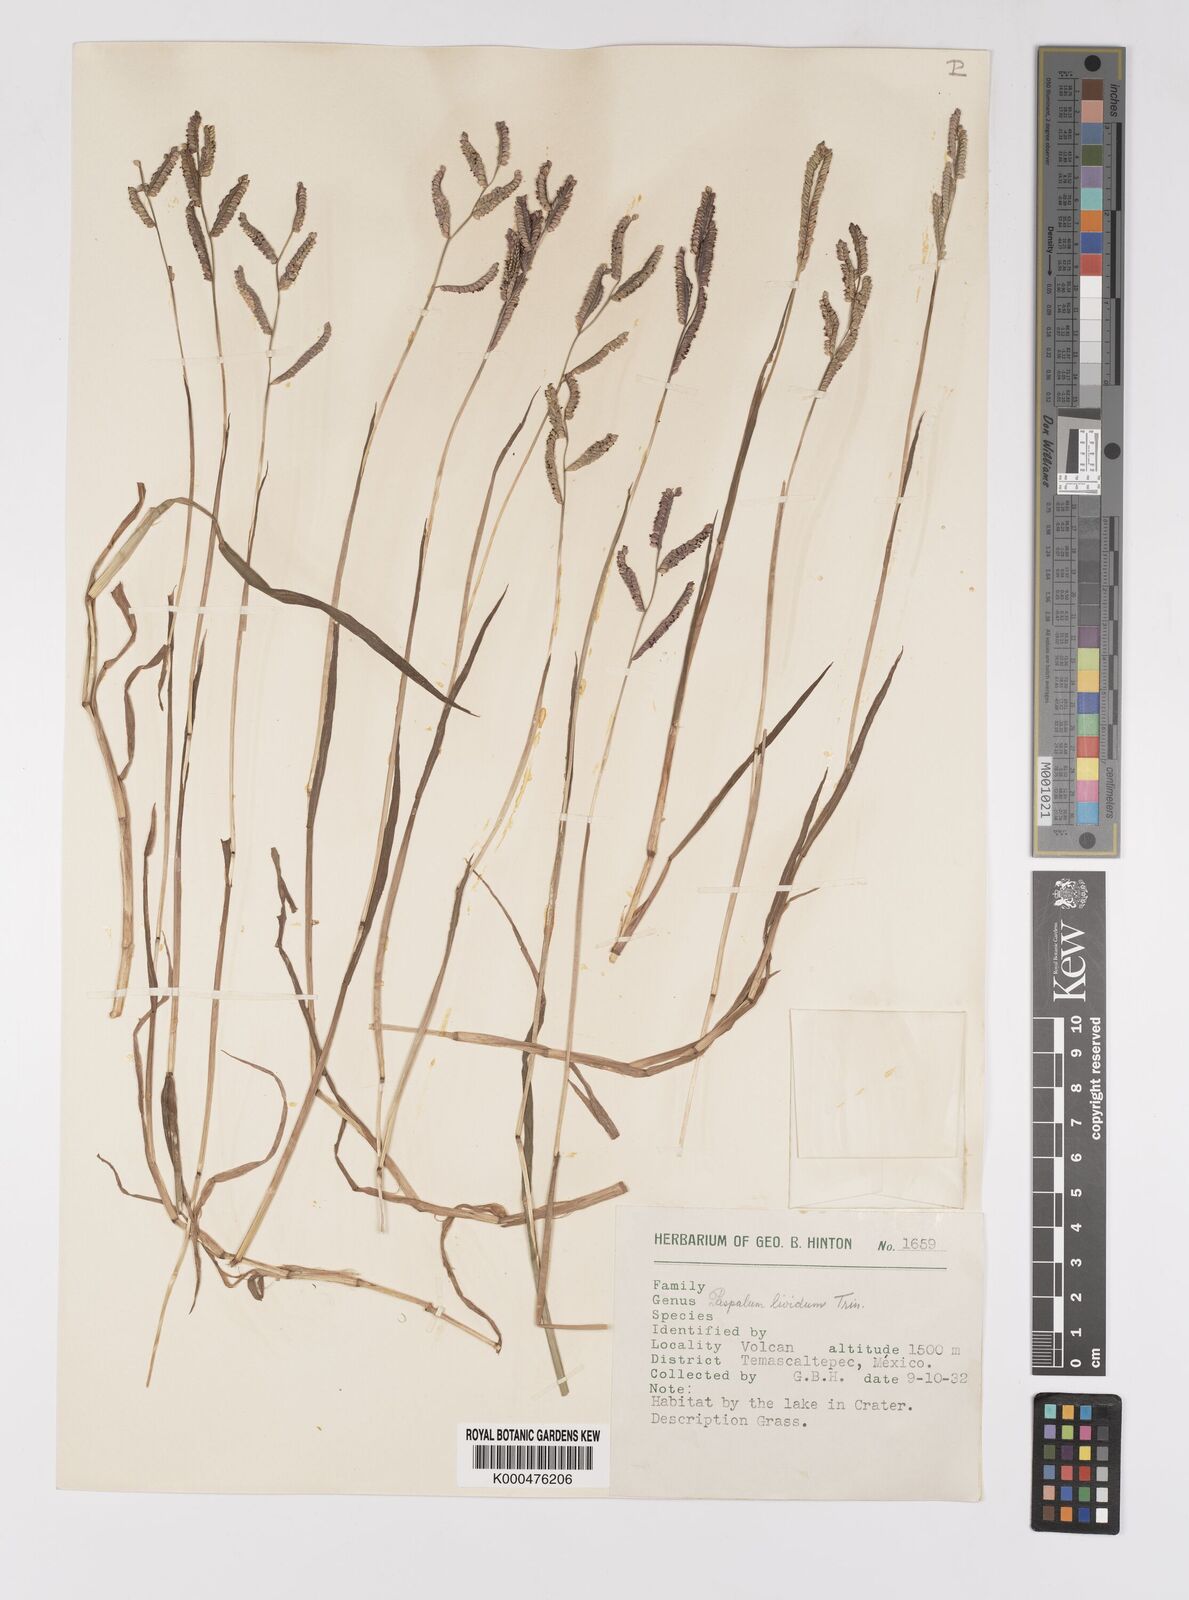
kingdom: Plantae
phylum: Tracheophyta
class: Liliopsida
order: Poales
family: Poaceae
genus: Paspalum
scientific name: Paspalum denticulatum
